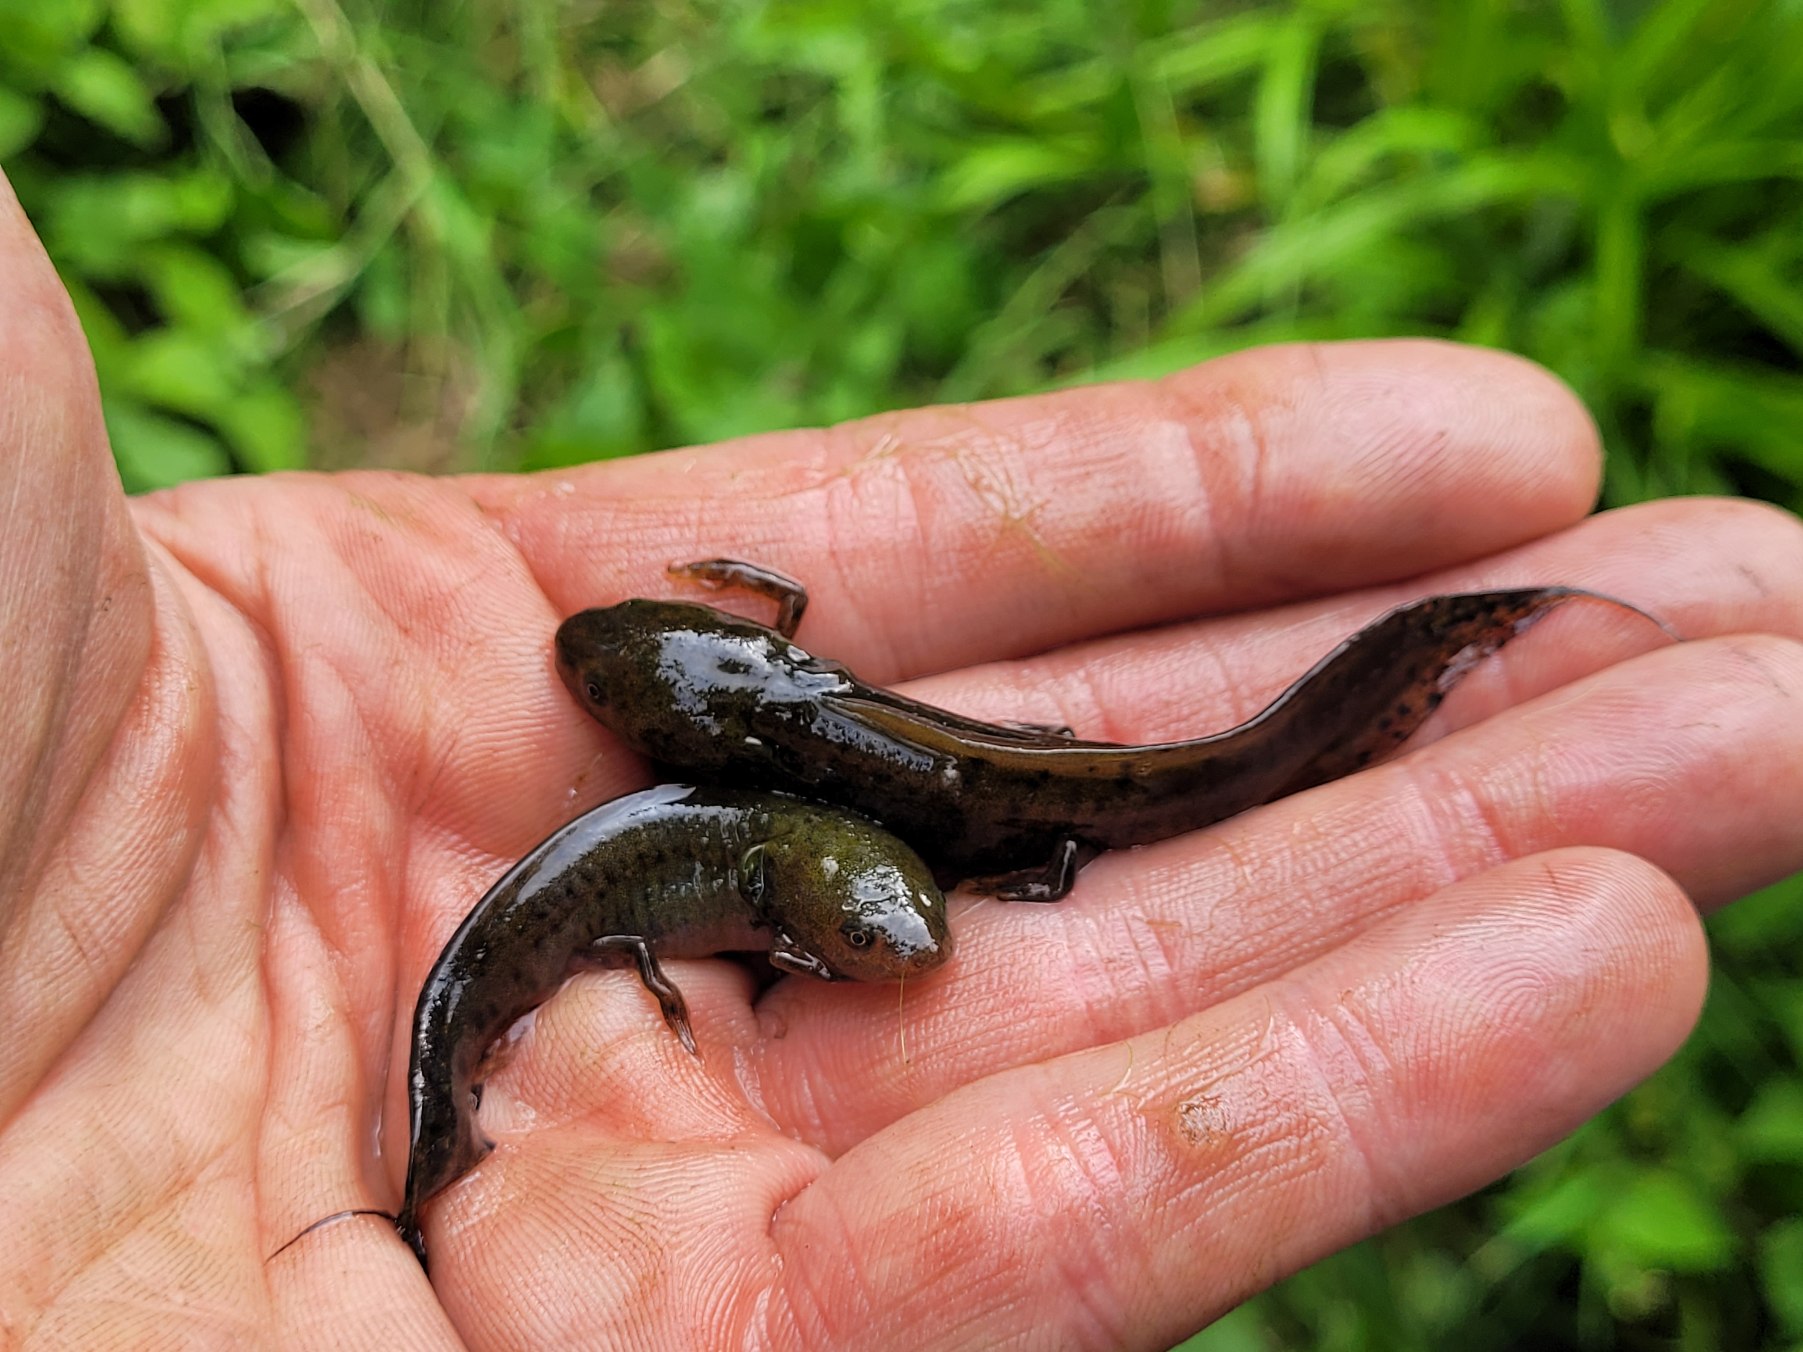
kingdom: Animalia
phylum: Chordata
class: Amphibia
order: Caudata
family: Salamandridae
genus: Triturus
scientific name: Triturus cristatus
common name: Stor vandsalamander
